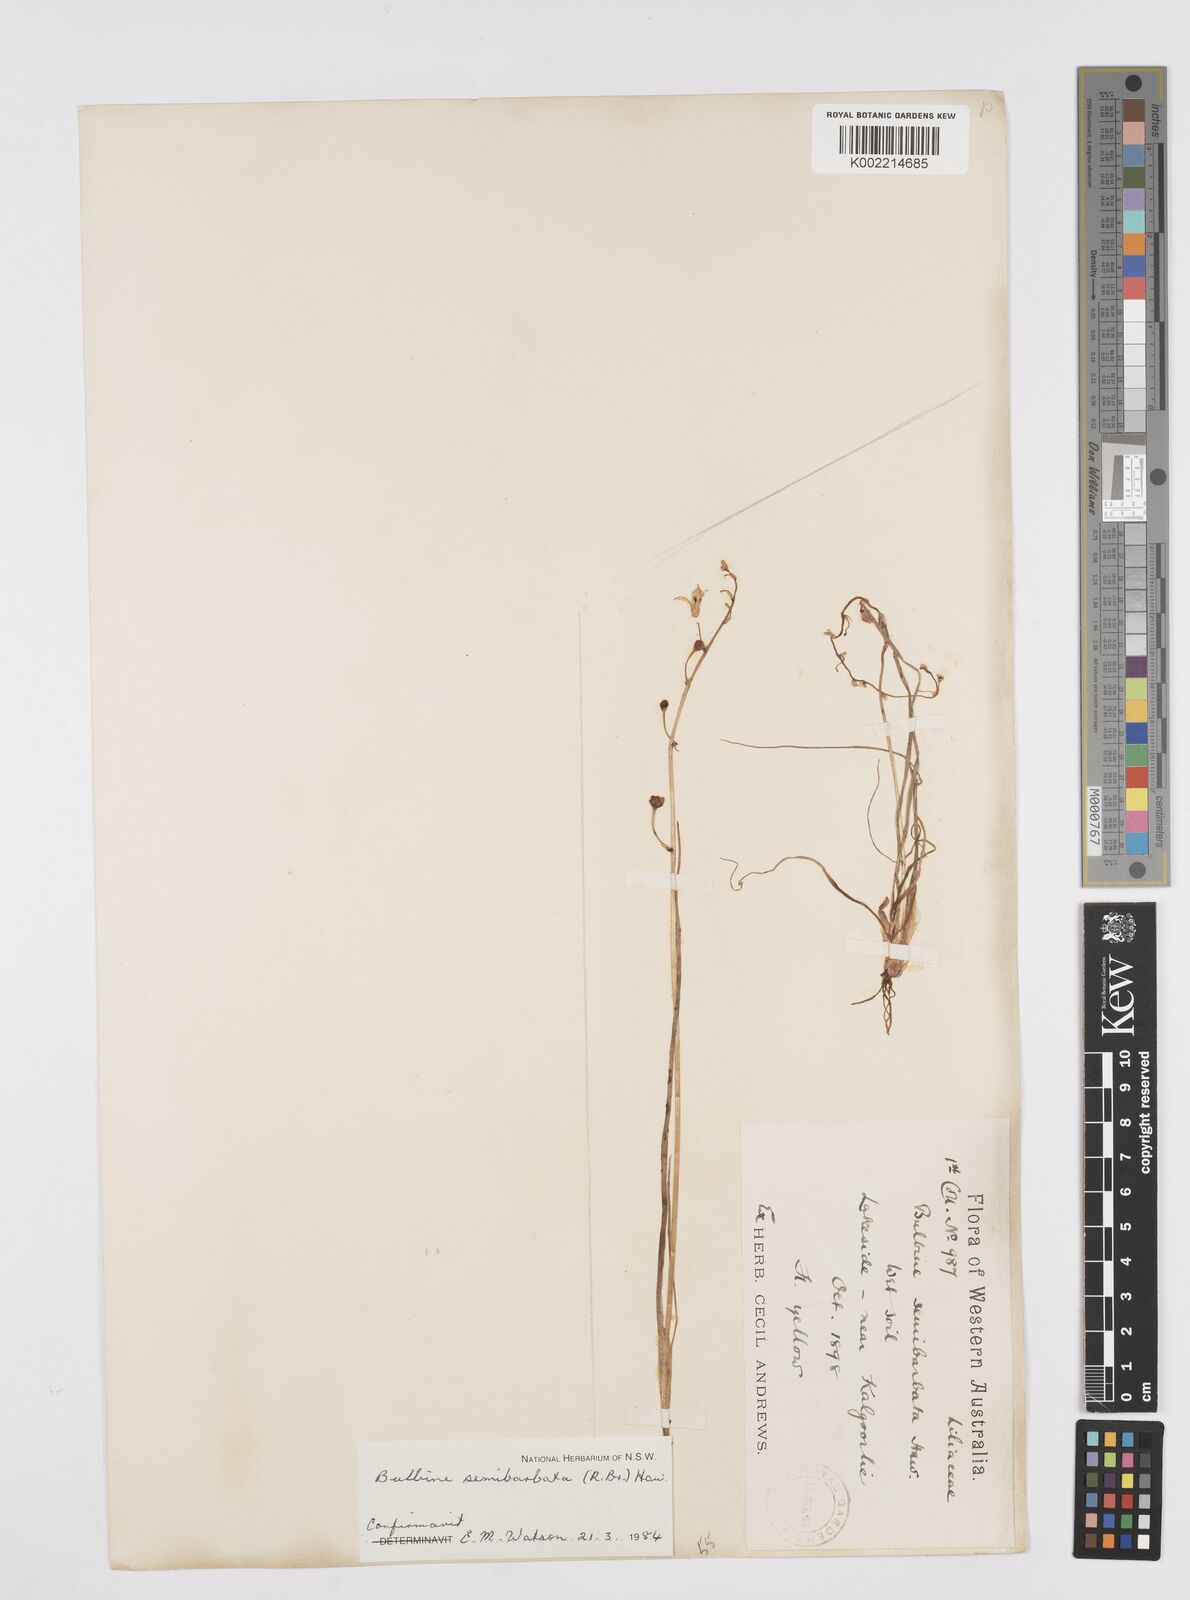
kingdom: Plantae
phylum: Tracheophyta
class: Liliopsida
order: Asparagales
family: Asphodelaceae
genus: Bulbine
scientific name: Bulbine semibarbata
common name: Leek lily
